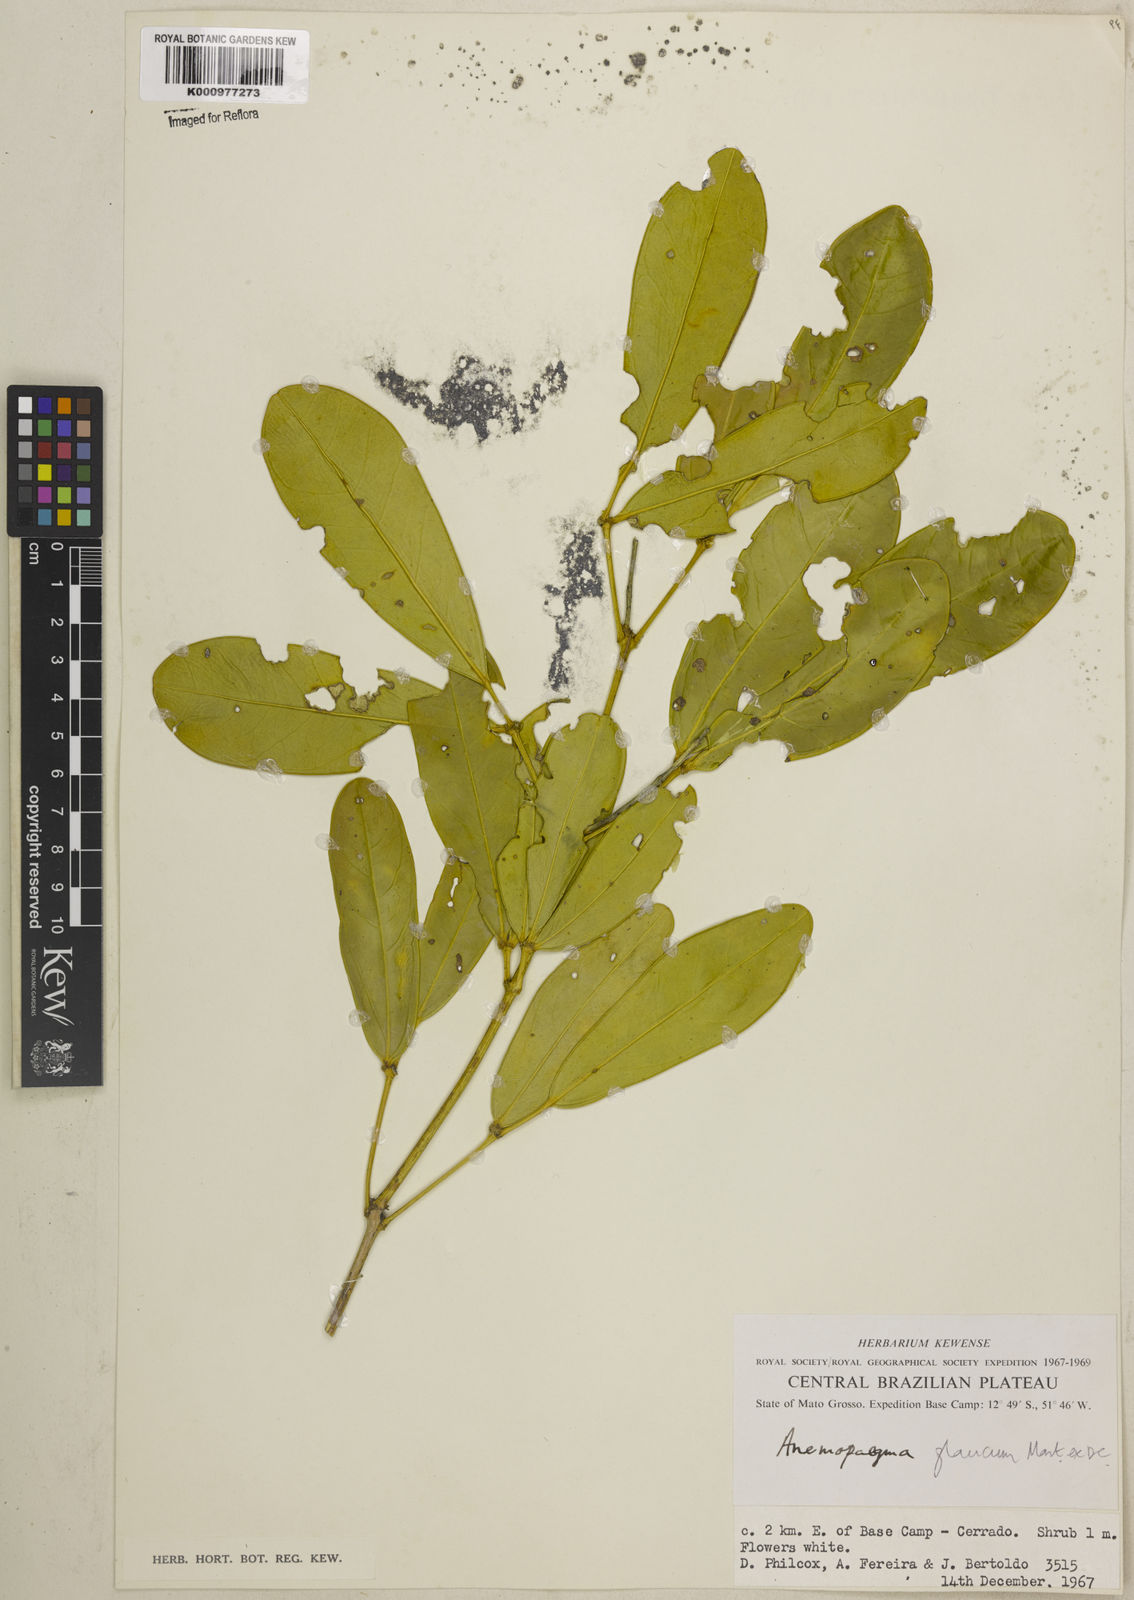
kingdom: Plantae
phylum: Tracheophyta
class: Magnoliopsida
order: Lamiales
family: Bignoniaceae
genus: Anemopaegma
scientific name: Anemopaegma glaucum
